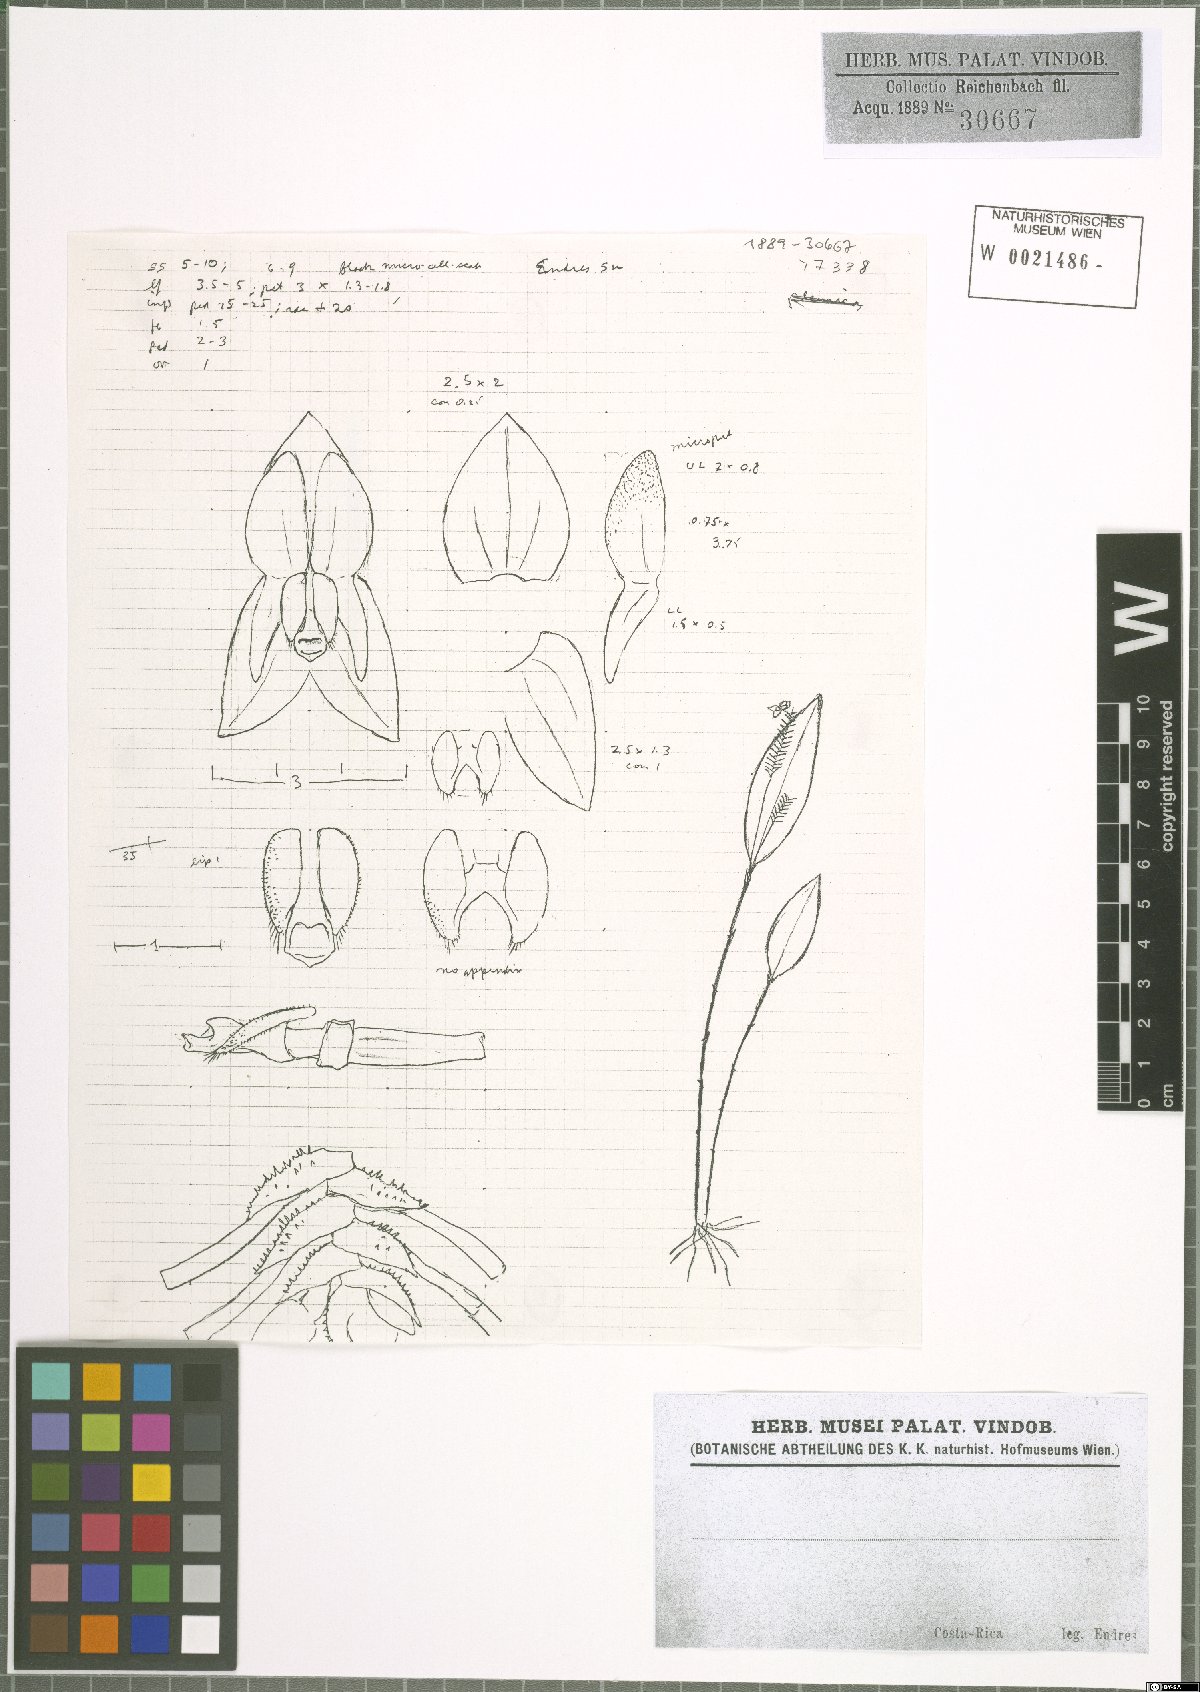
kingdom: Plantae
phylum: Tracheophyta
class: Liliopsida
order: Asparagales
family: Orchidaceae
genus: Lepanthes
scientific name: Lepanthes disticha
